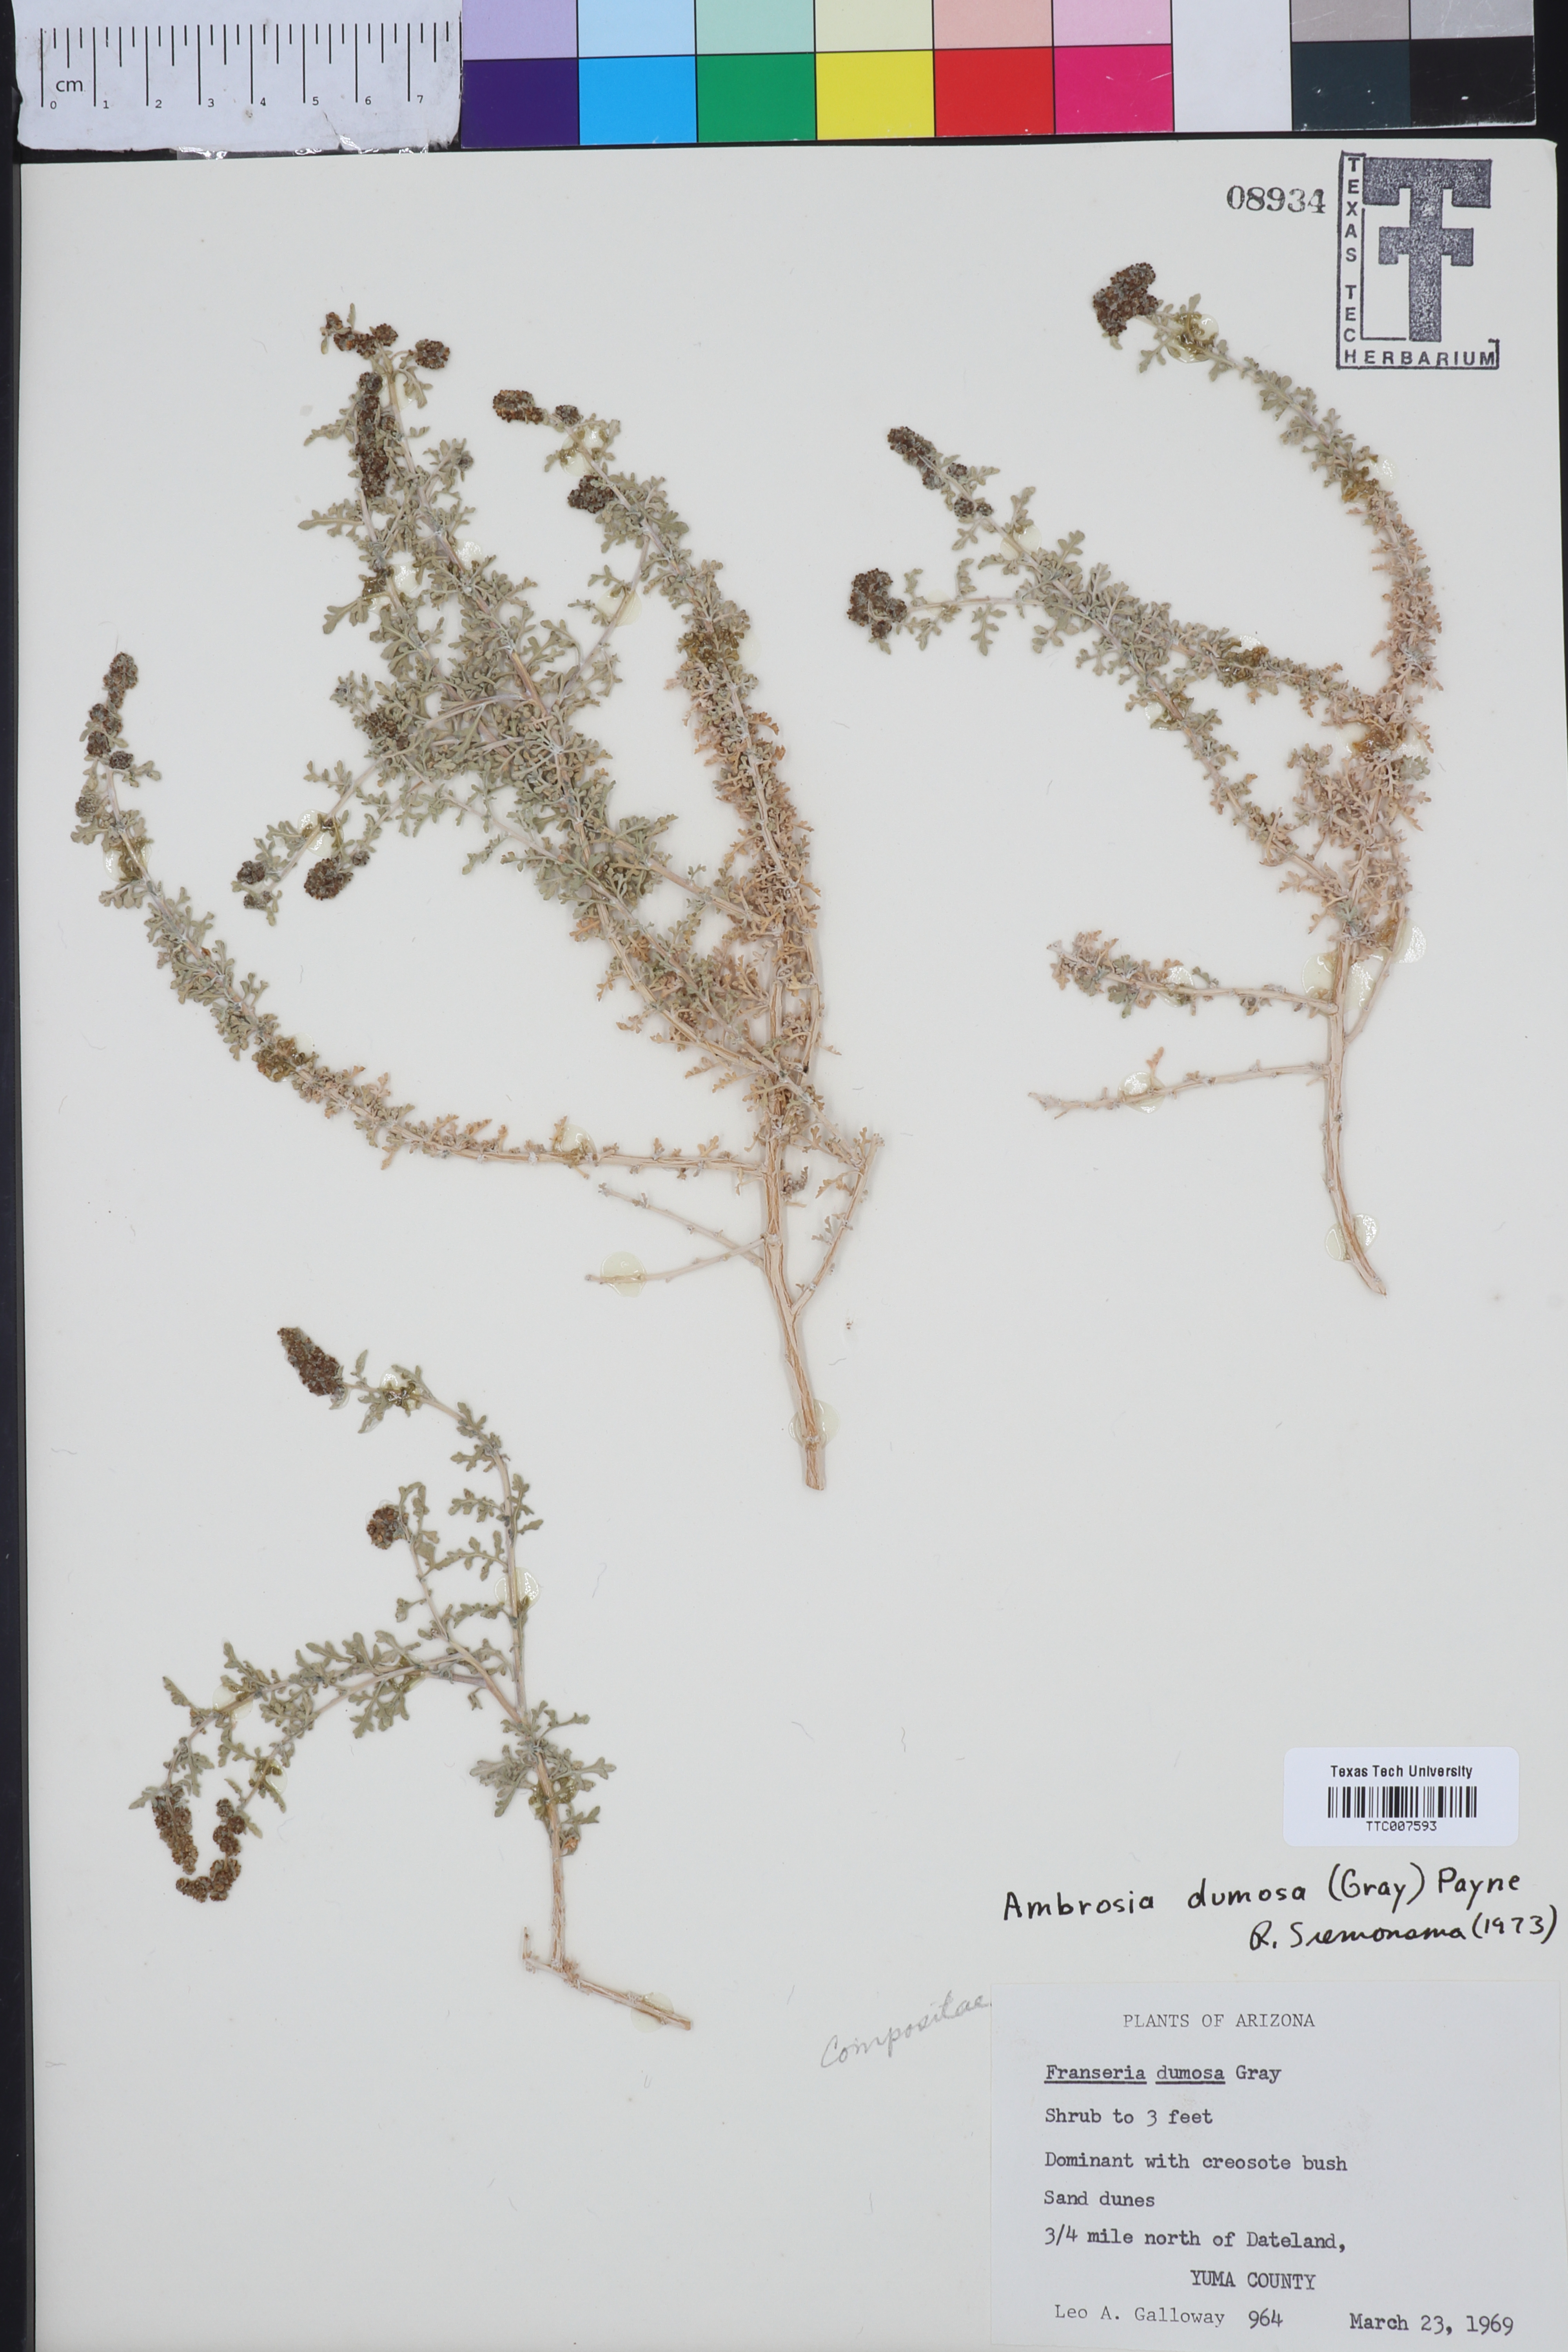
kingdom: Plantae
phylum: Tracheophyta
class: Magnoliopsida
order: Asterales
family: Asteraceae
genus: Ambrosia
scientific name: Ambrosia dumosa
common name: Bur-sage
